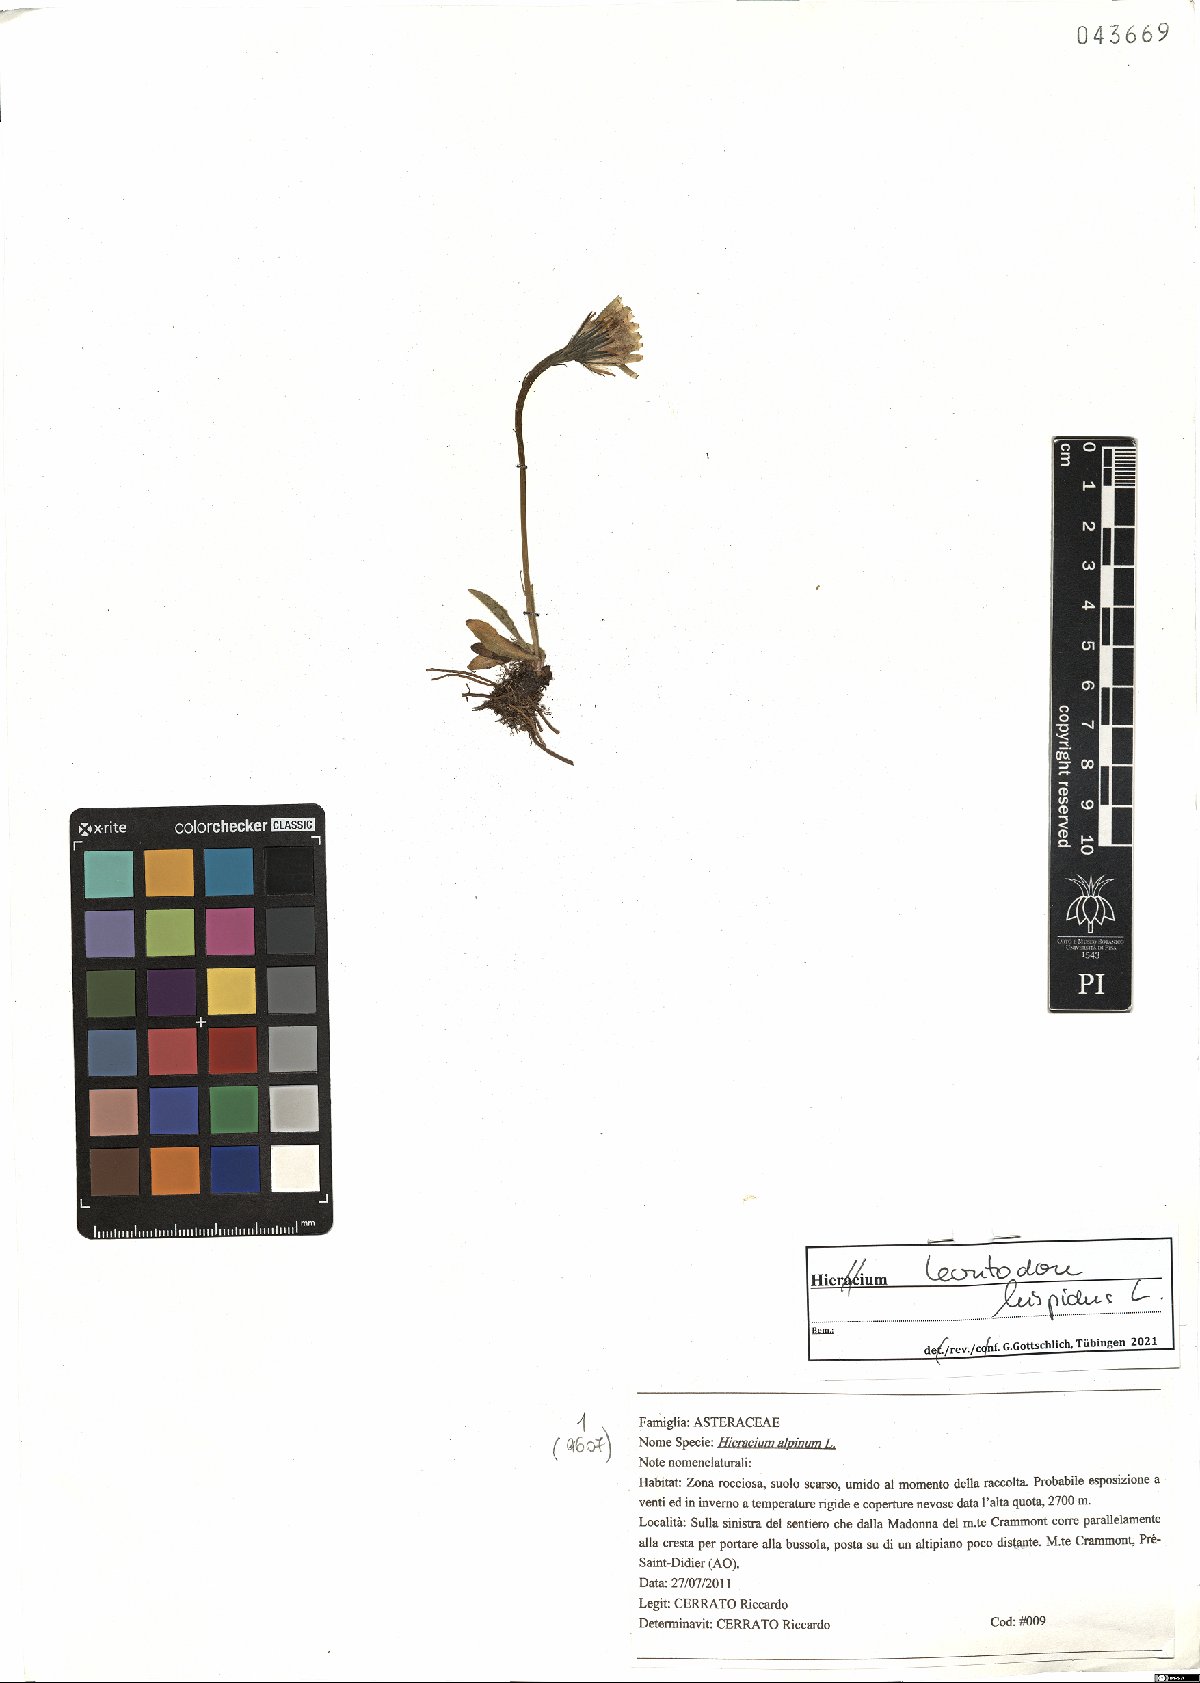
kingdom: Plantae
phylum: Tracheophyta
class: Magnoliopsida
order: Asterales
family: Asteraceae
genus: Leontodon
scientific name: Leontodon hispidus
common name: Rough hawkbit
